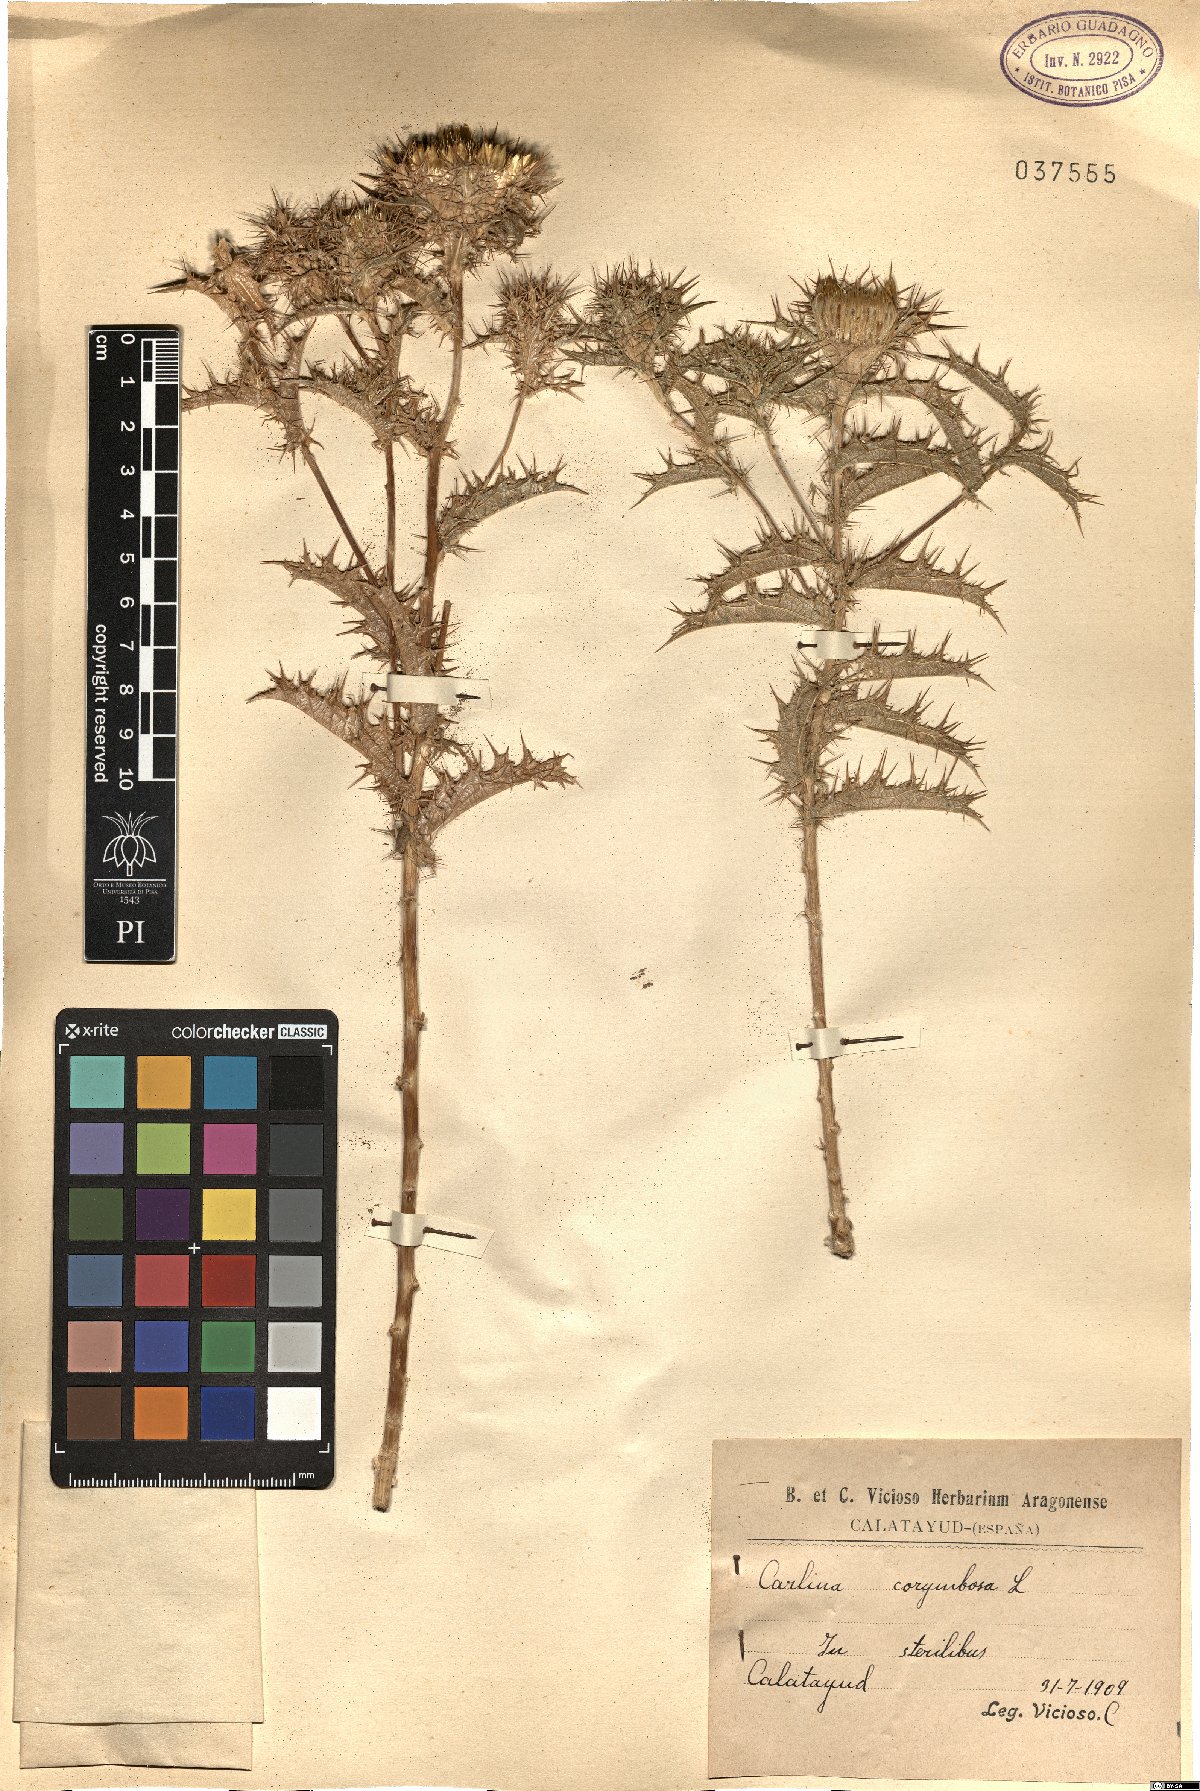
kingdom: Plantae
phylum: Tracheophyta
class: Magnoliopsida
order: Asterales
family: Asteraceae
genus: Carlina
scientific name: Carlina corymbosa
